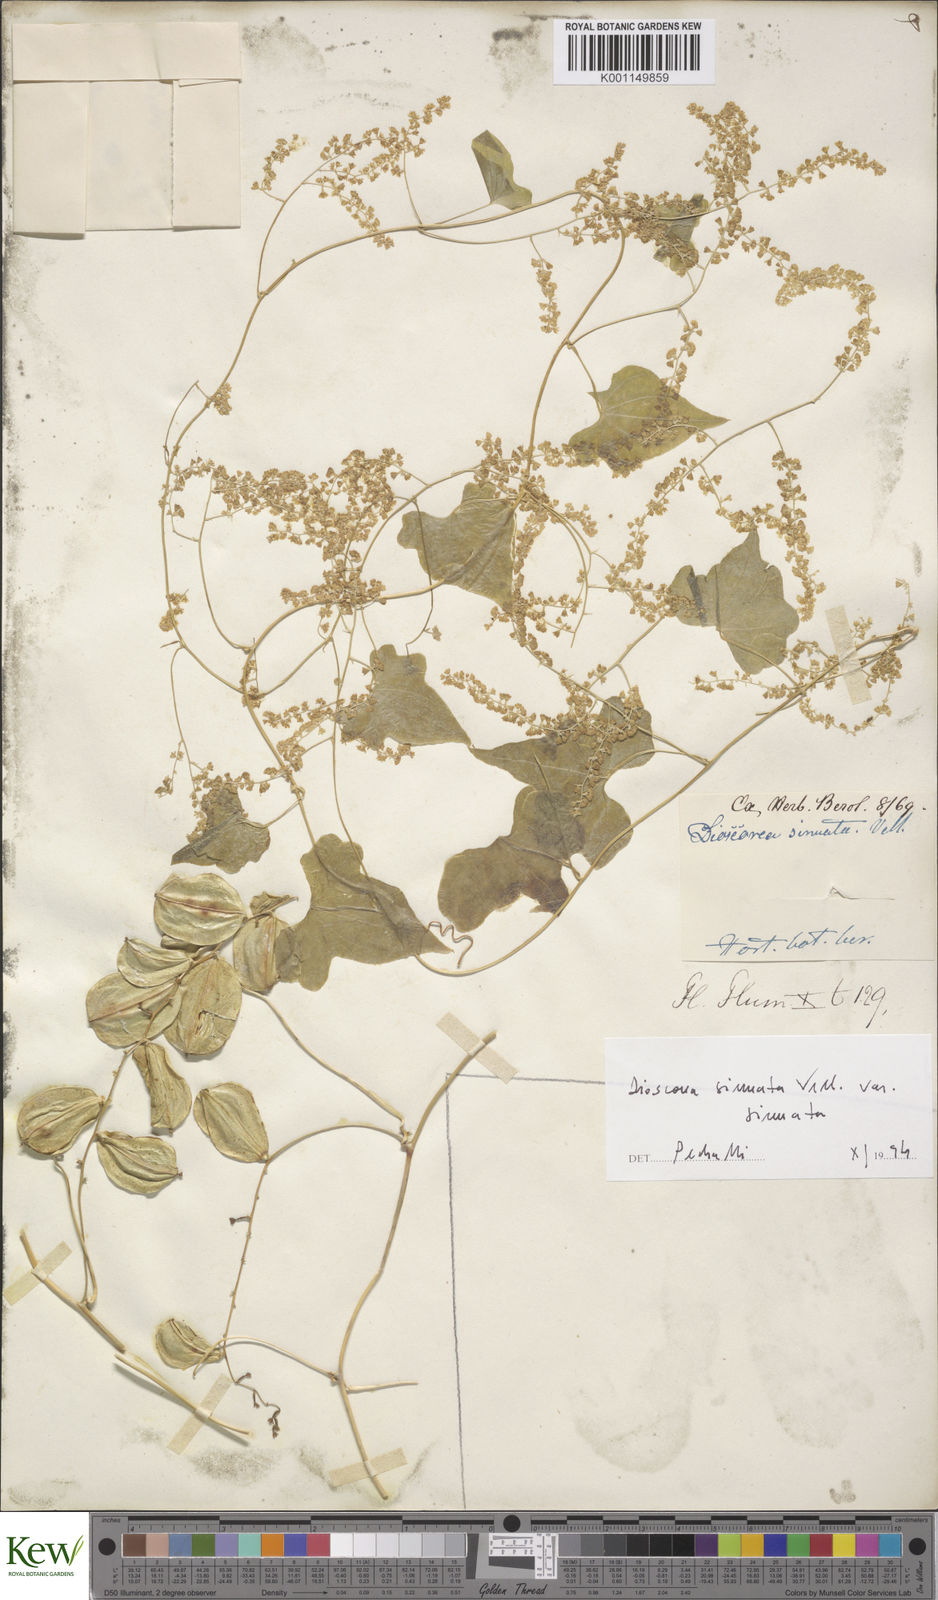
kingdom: Plantae
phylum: Tracheophyta
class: Liliopsida
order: Dioscoreales
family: Dioscoreaceae
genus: Dioscorea
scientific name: Dioscorea sinuata
